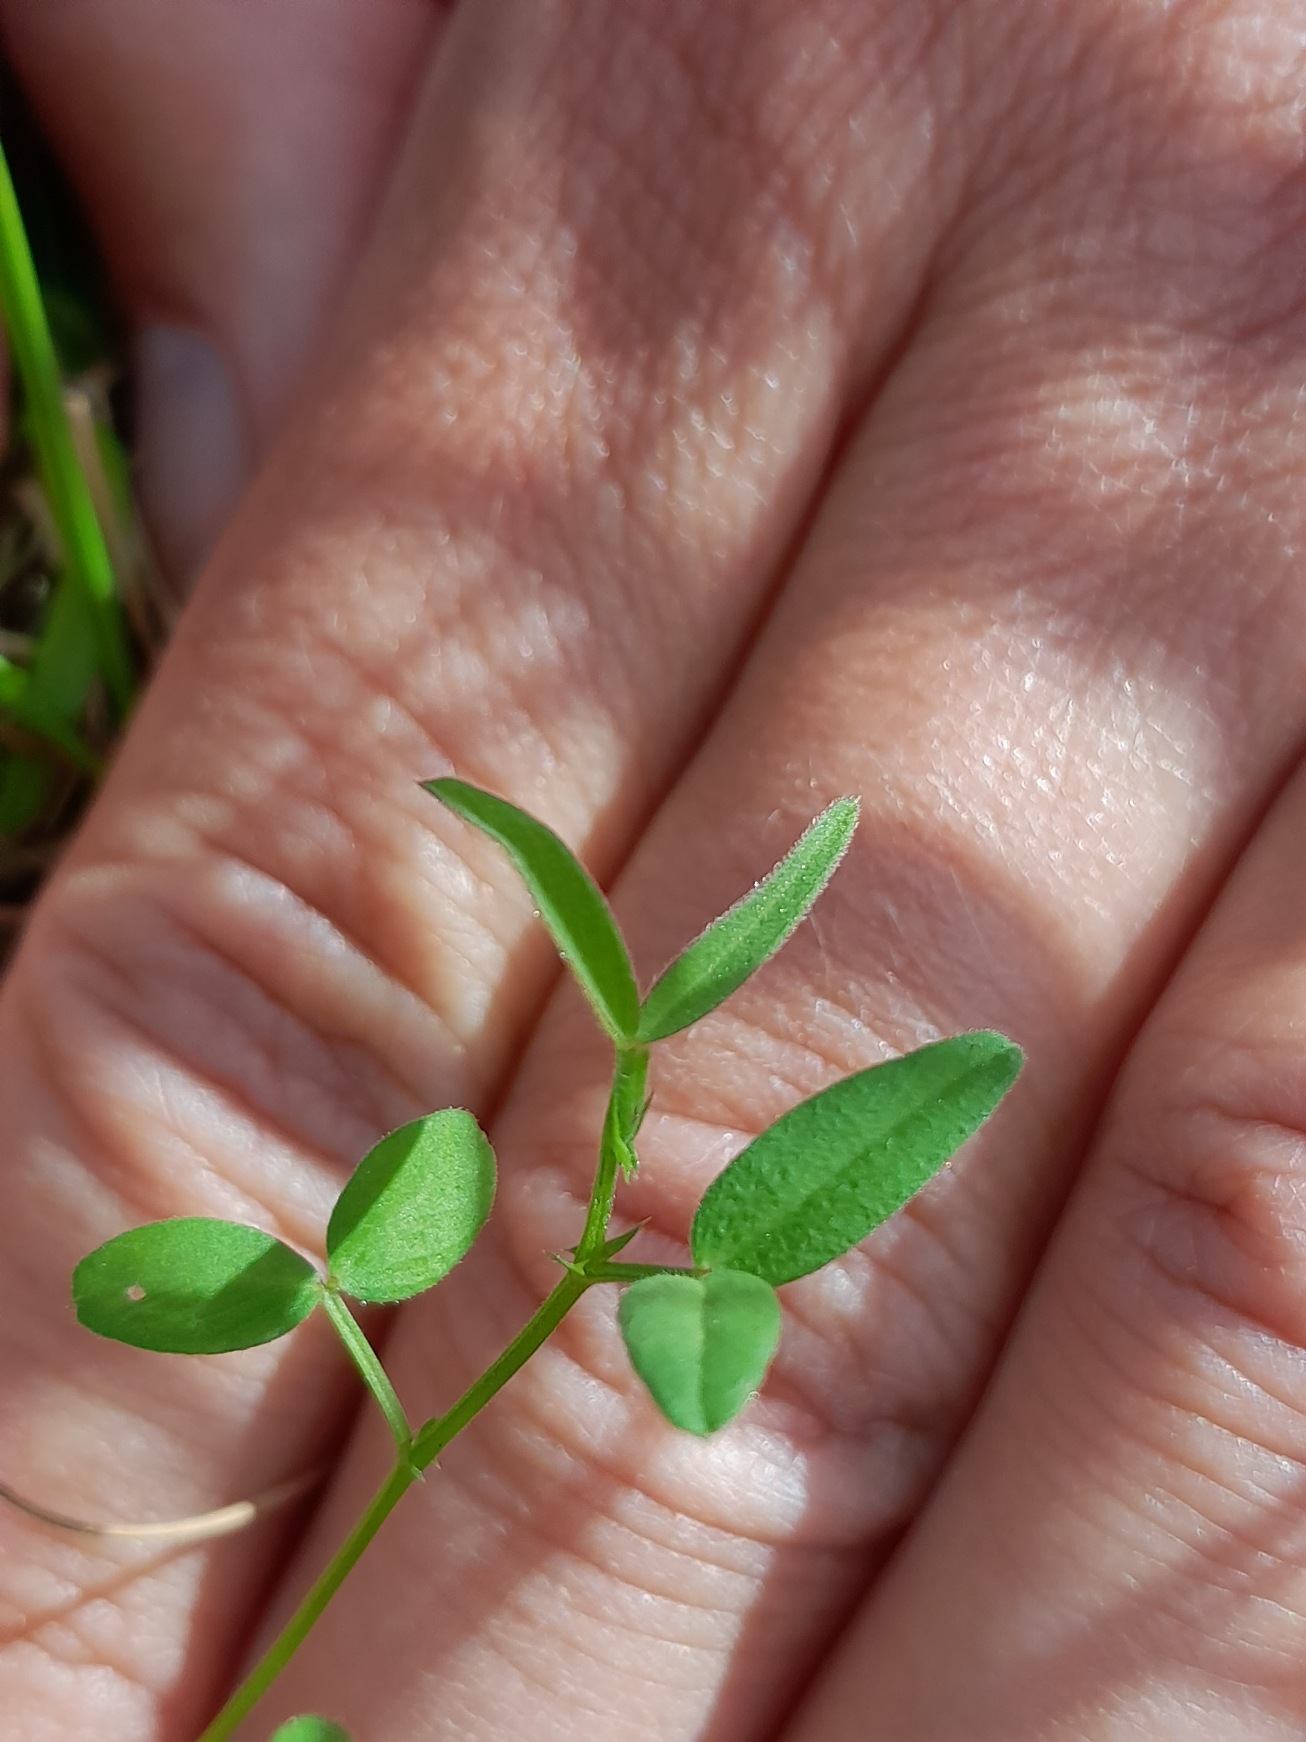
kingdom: Plantae
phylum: Tracheophyta
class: Magnoliopsida
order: Fabales
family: Fabaceae
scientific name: Fabaceae
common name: Ærteblomstfamilien
